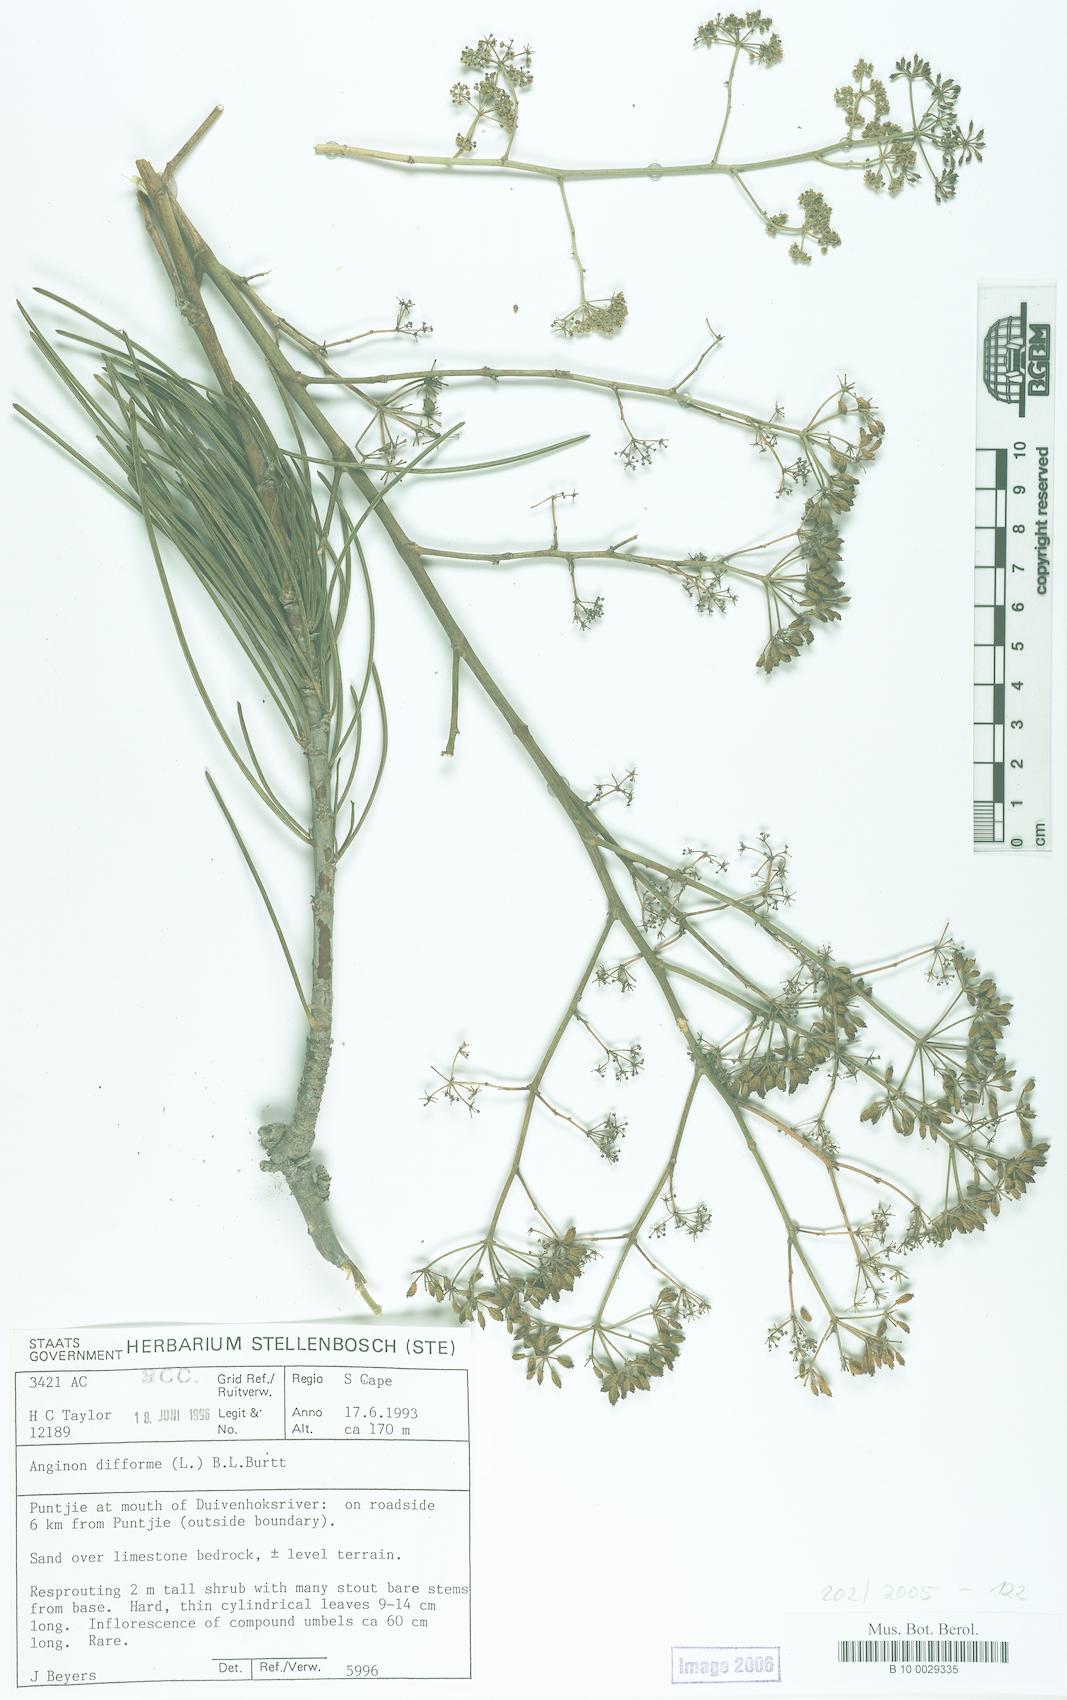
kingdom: Plantae
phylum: Tracheophyta
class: Magnoliopsida
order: Apiales
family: Apiaceae
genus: Anginon
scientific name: Anginon difforme
